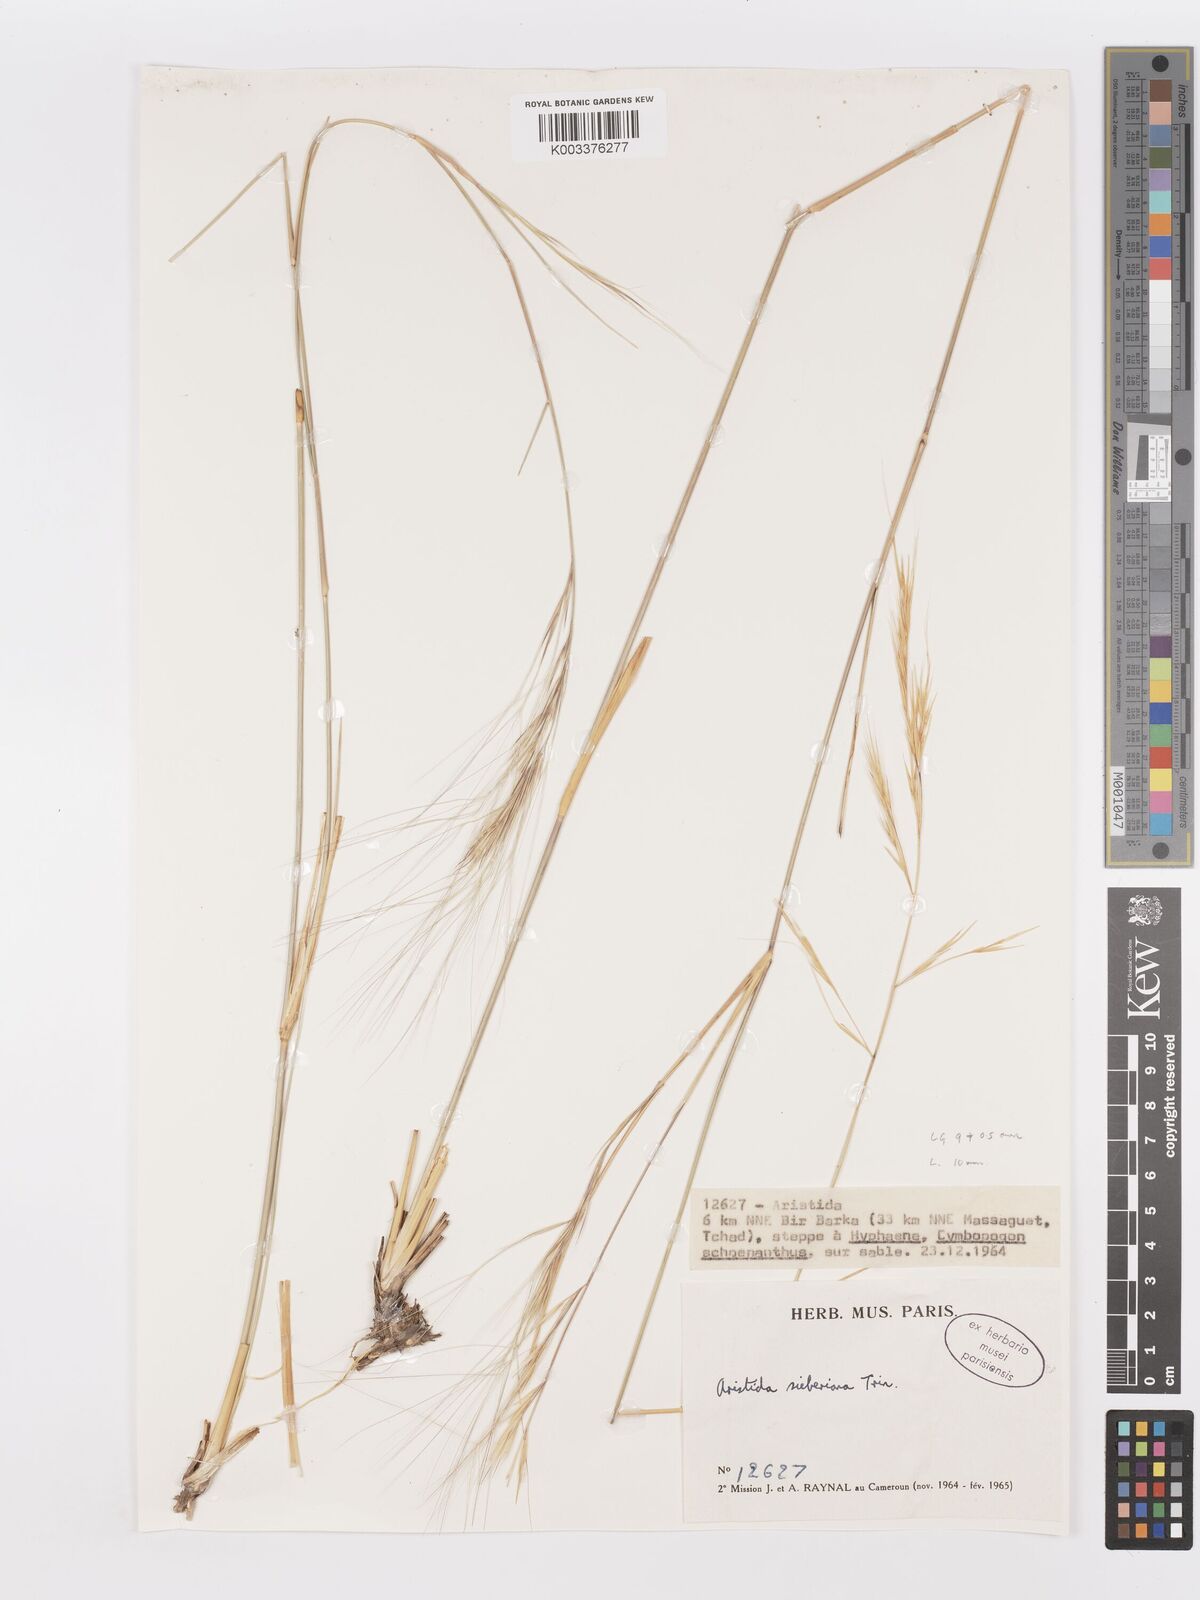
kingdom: Plantae
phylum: Tracheophyta
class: Liliopsida
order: Poales
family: Poaceae
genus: Aristida
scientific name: Aristida sieberiana
